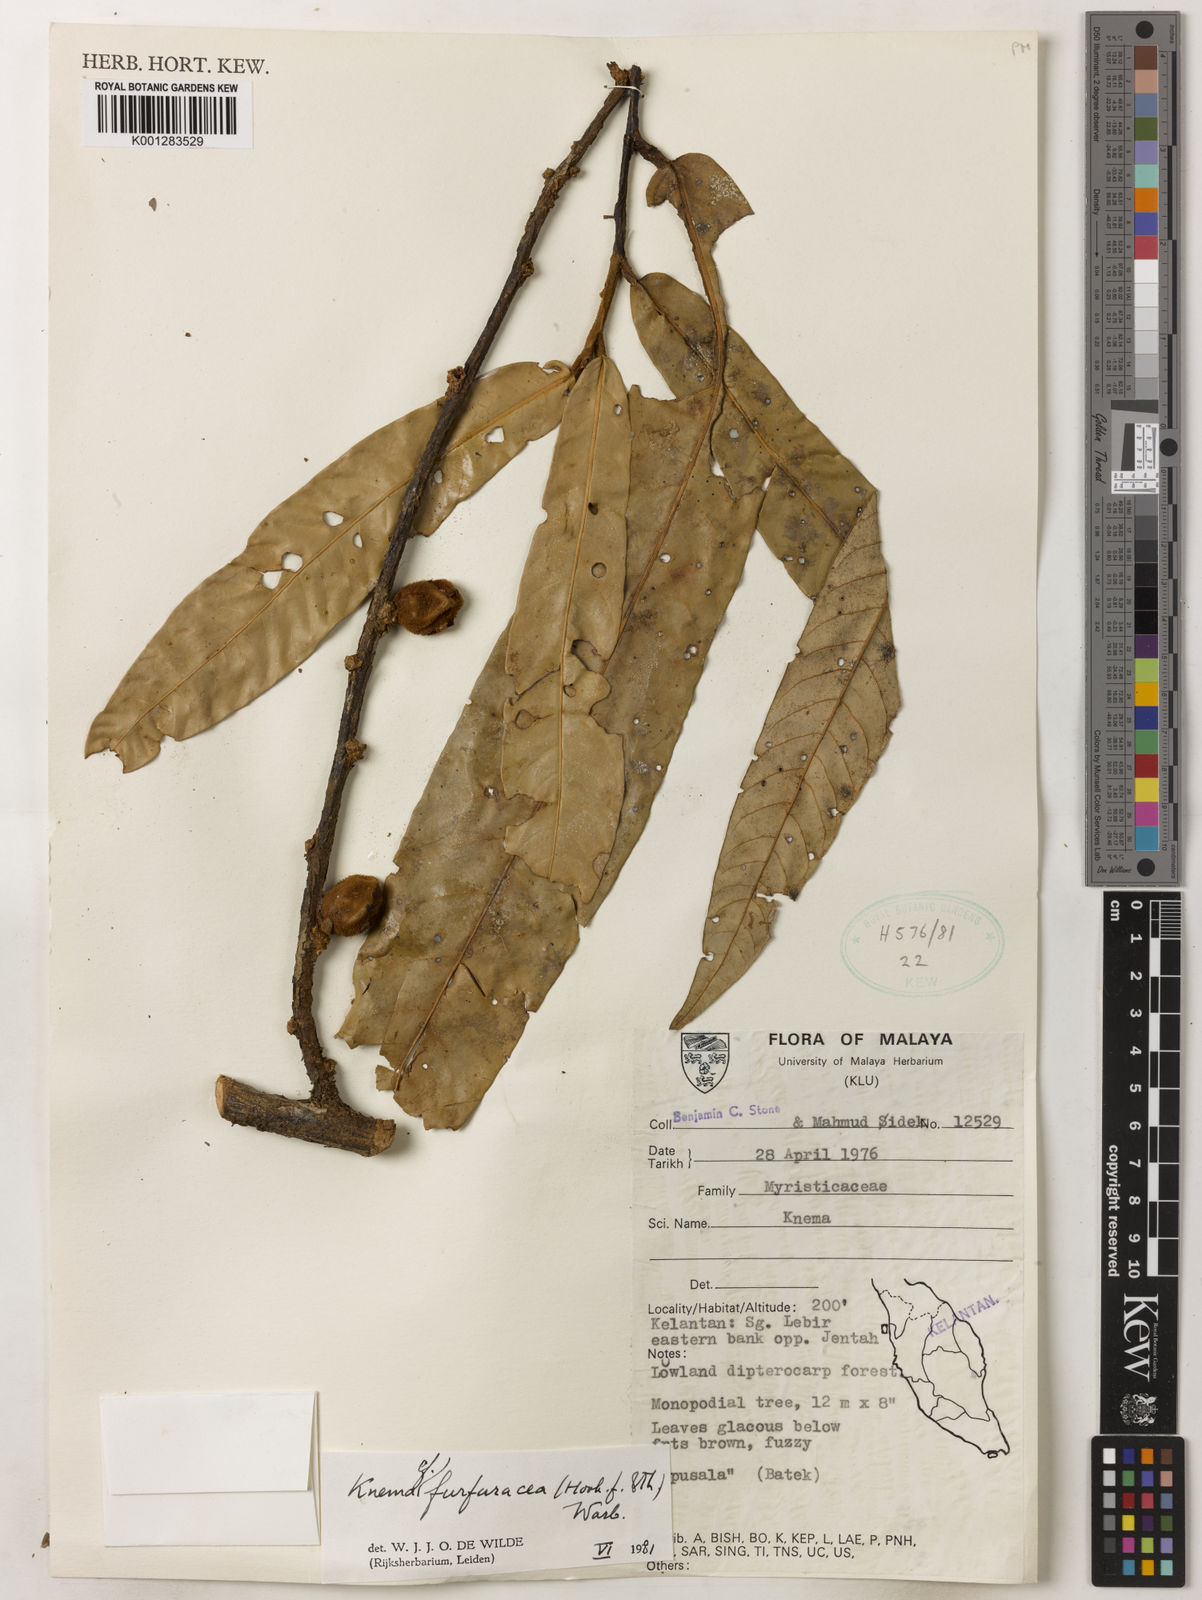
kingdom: Plantae
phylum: Tracheophyta
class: Magnoliopsida
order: Magnoliales
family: Myristicaceae
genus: Knema
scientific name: Knema furfuracea
